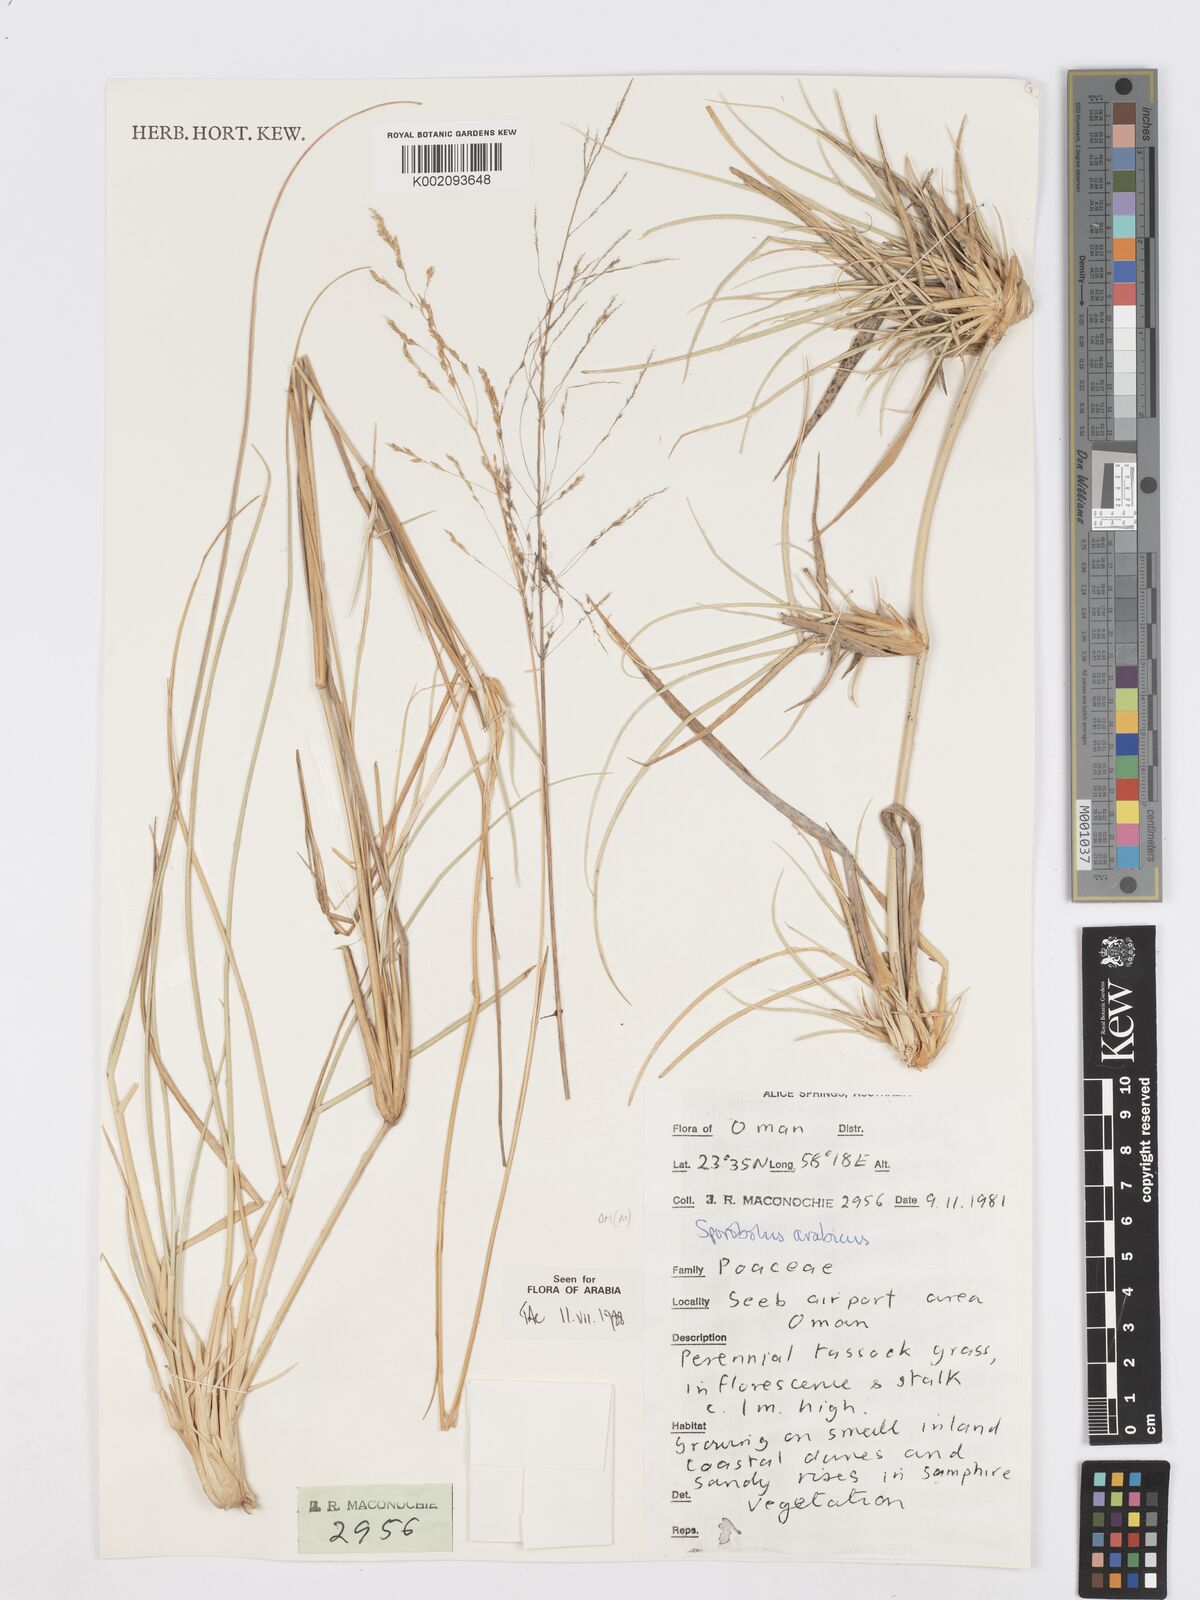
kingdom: Plantae
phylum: Tracheophyta
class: Liliopsida
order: Poales
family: Poaceae
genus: Sporobolus
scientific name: Sporobolus ioclados
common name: Pan dropseed
